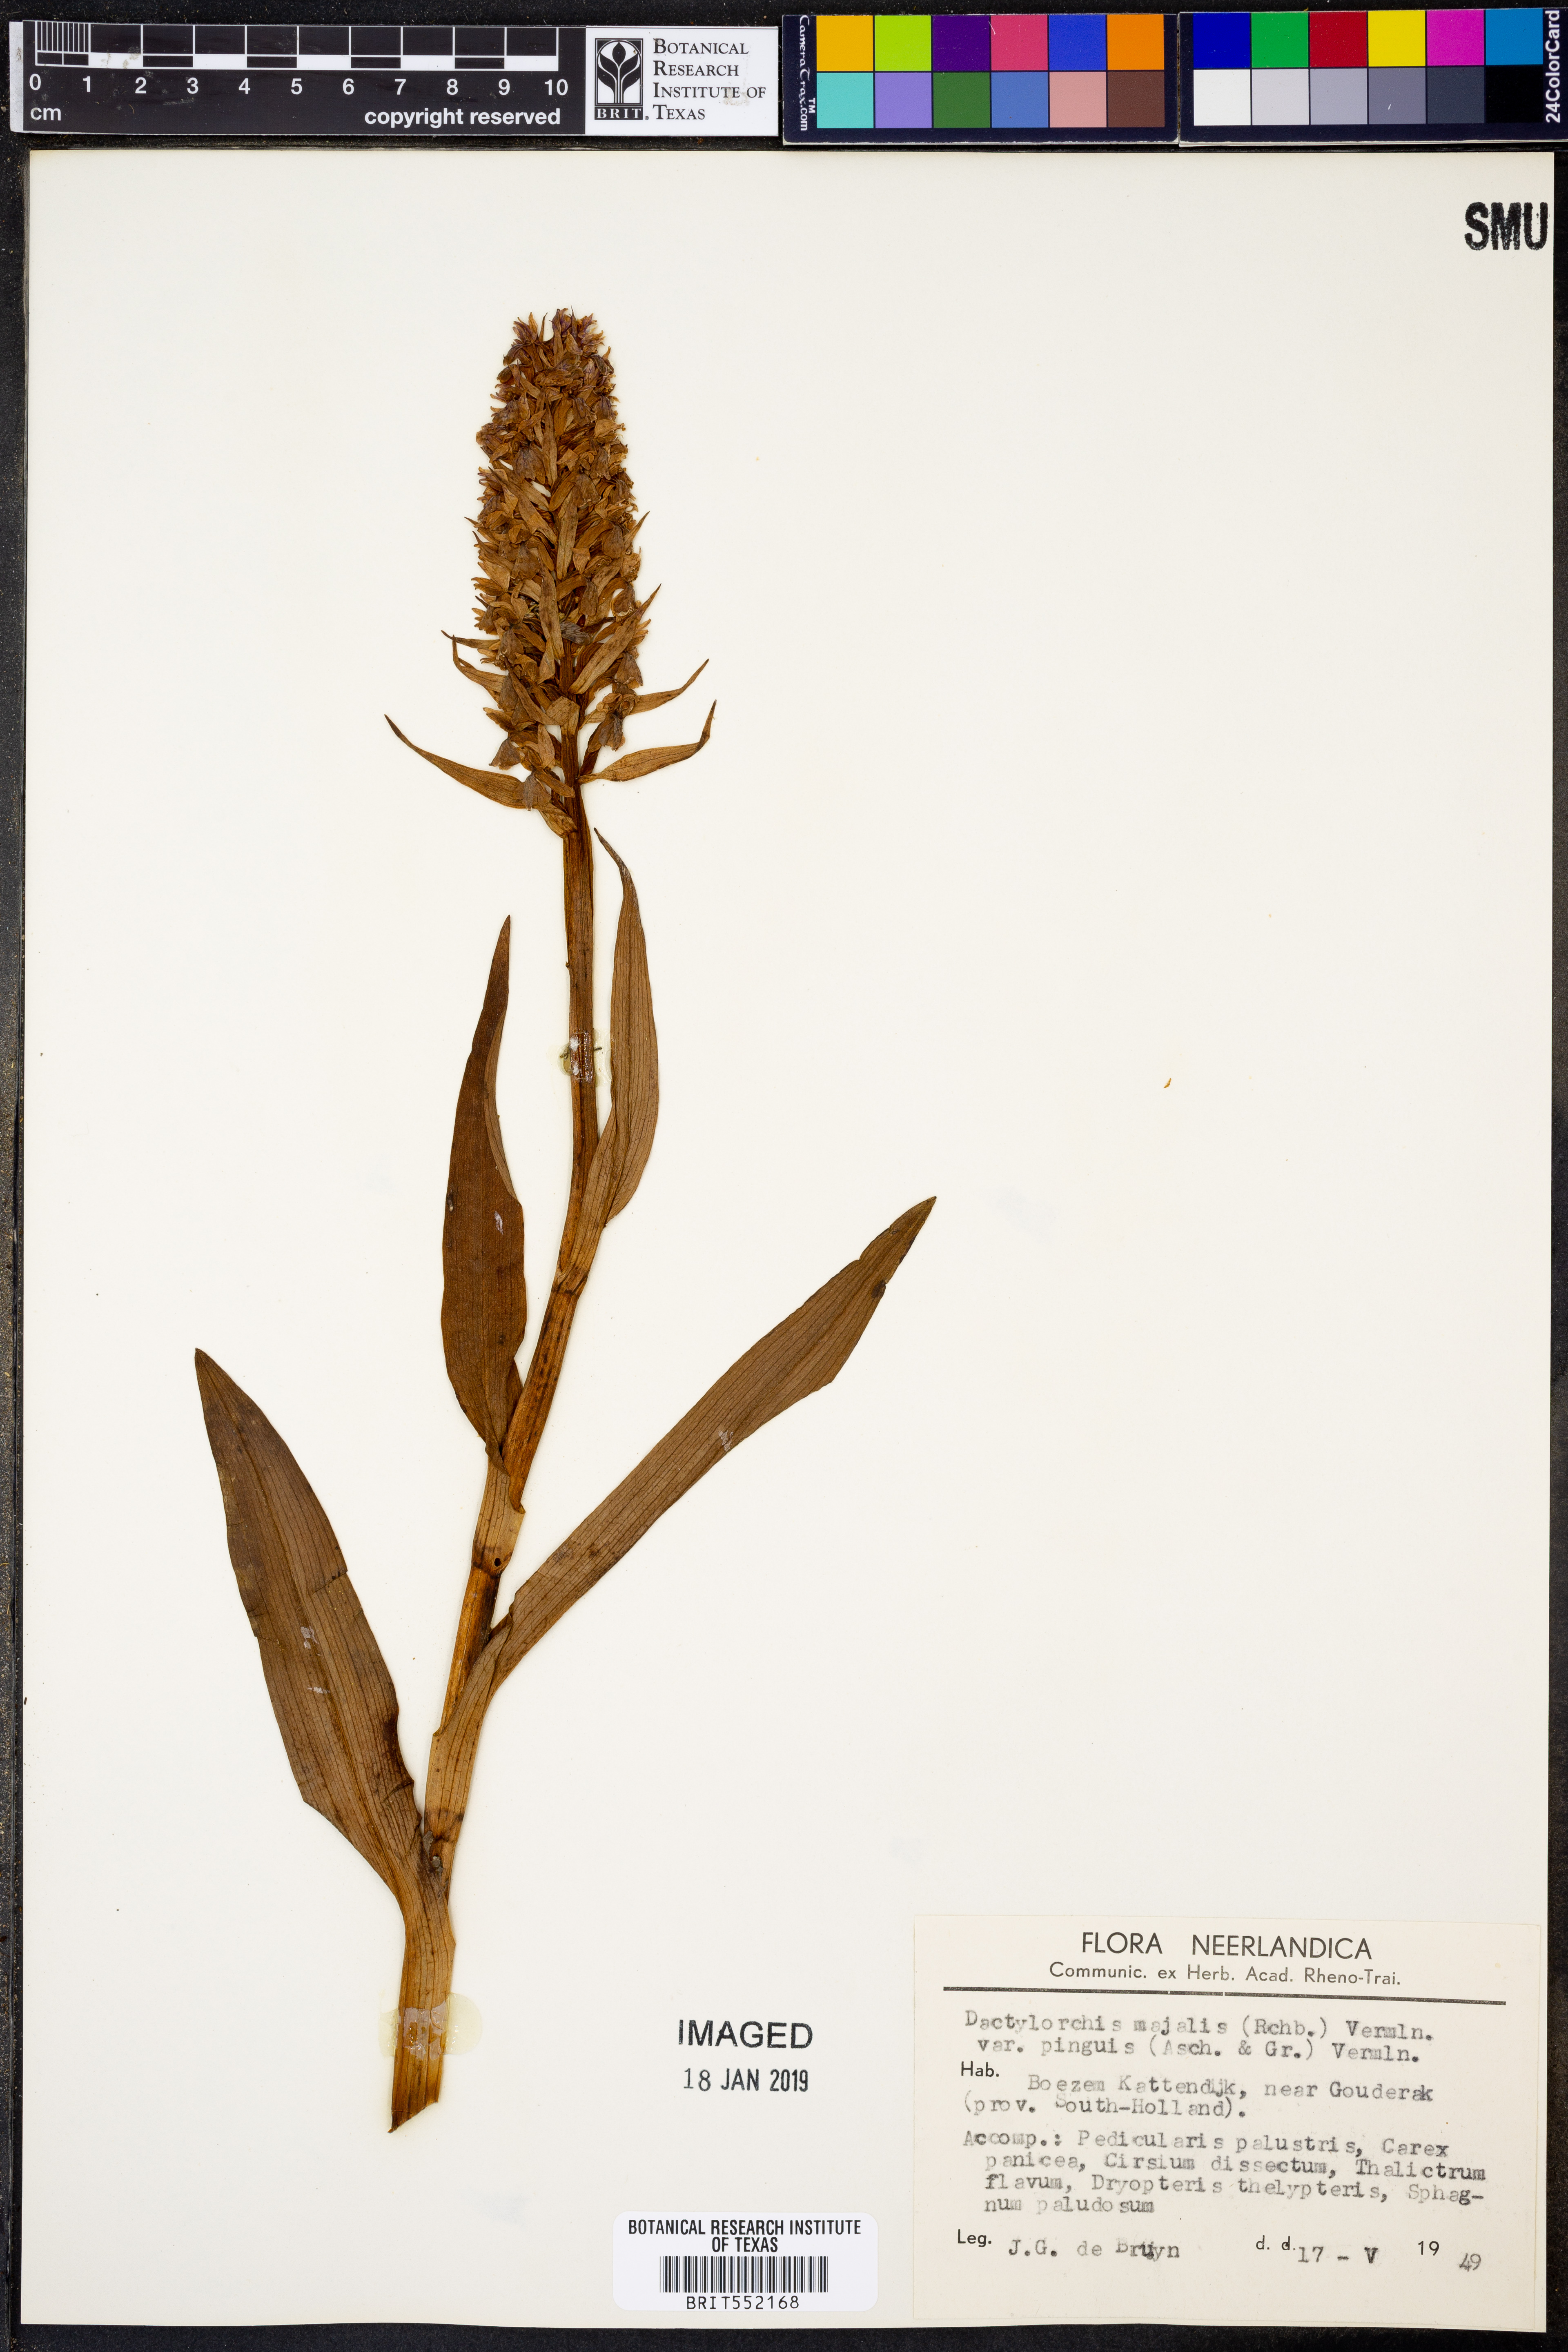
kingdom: Plantae
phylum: Tracheophyta
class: Liliopsida
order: Asparagales
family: Orchidaceae
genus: Dactylorhiza
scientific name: Dactylorhiza majalis
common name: Marsh orchid
